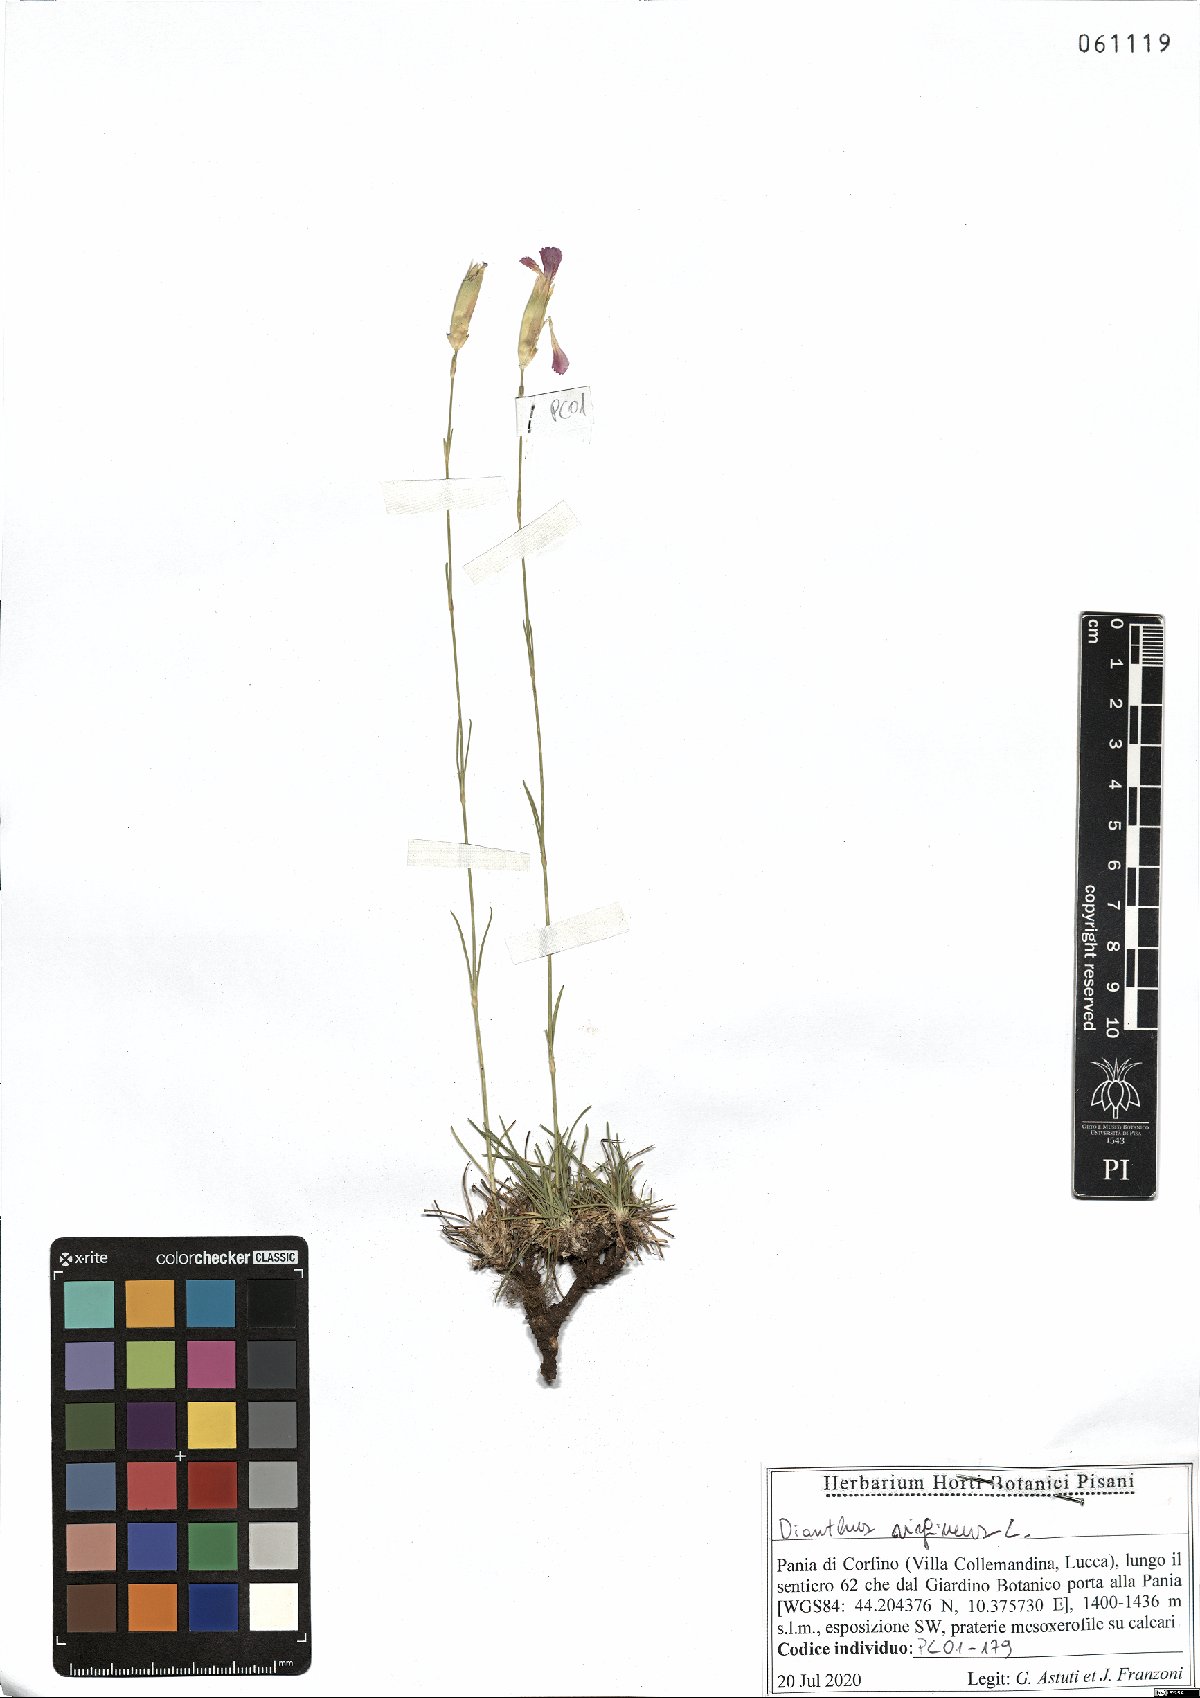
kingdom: Plantae
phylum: Tracheophyta
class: Magnoliopsida
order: Caryophyllales
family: Caryophyllaceae
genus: Dianthus
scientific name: Dianthus virgineus
